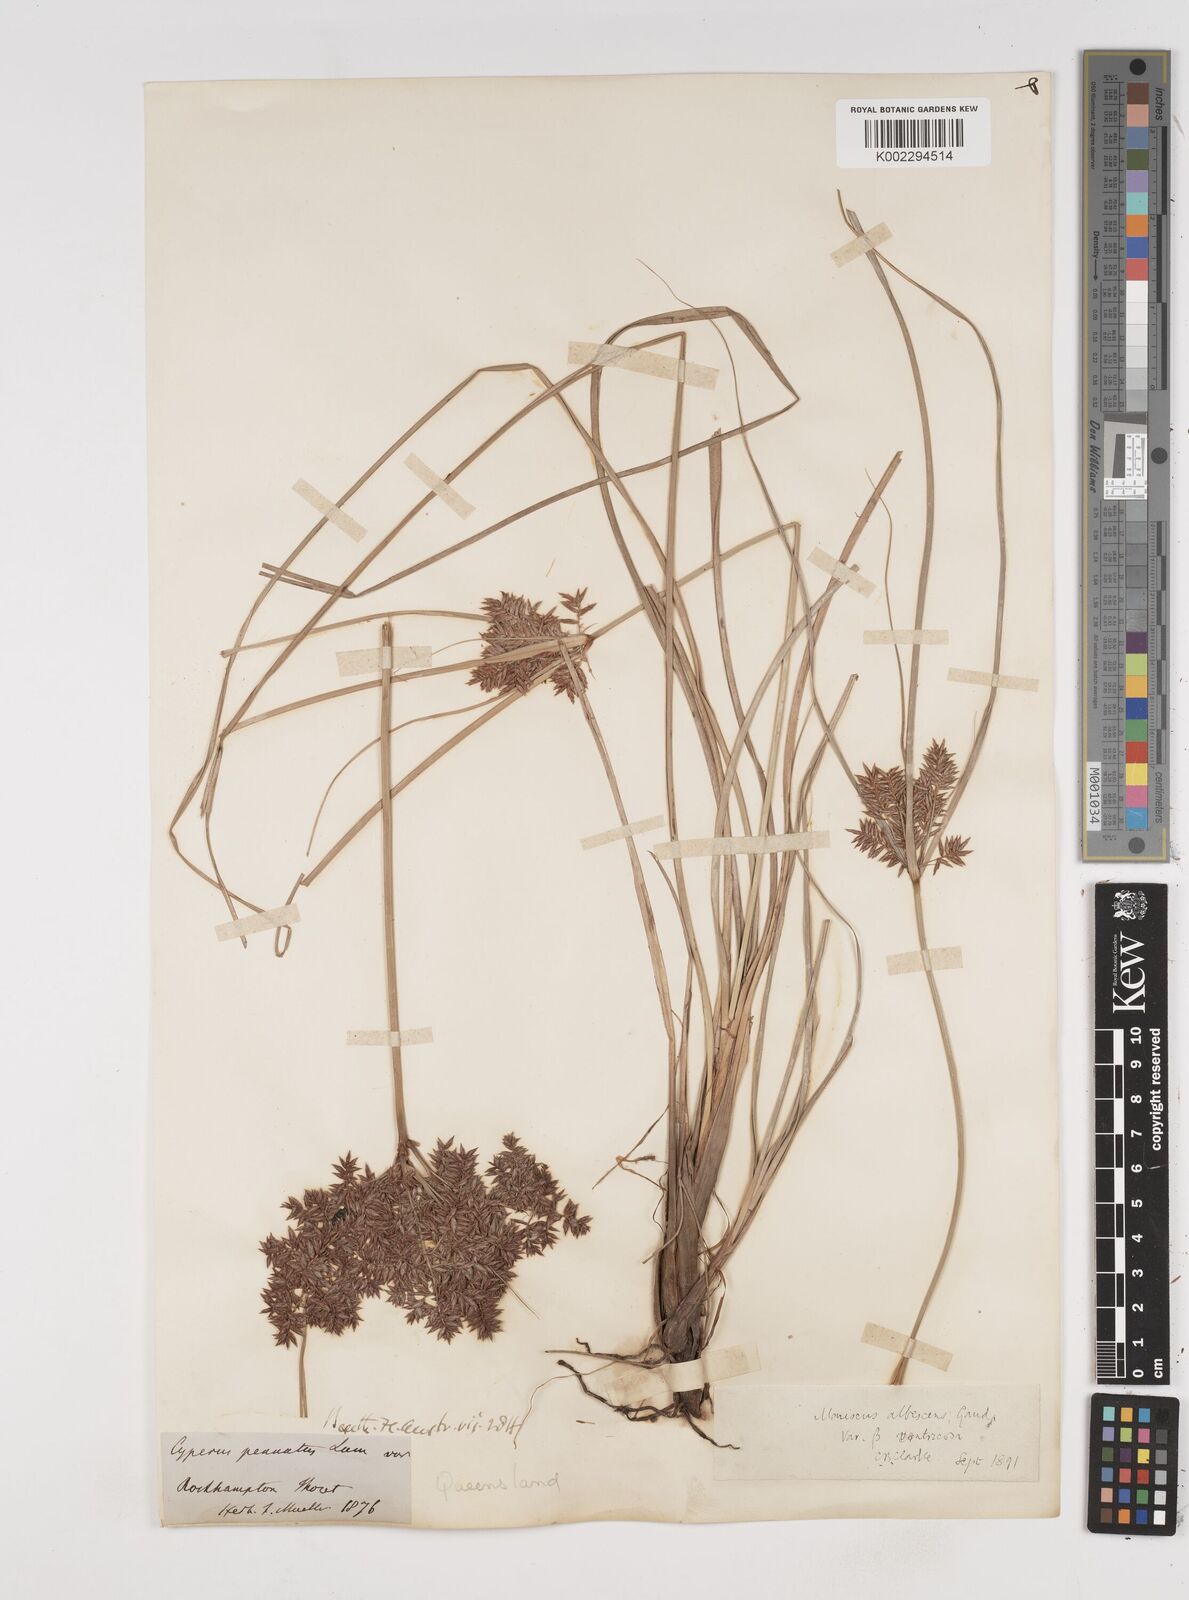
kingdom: Plantae
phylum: Tracheophyta
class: Liliopsida
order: Poales
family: Cyperaceae
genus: Cyperus
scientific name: Cyperus javanicus
